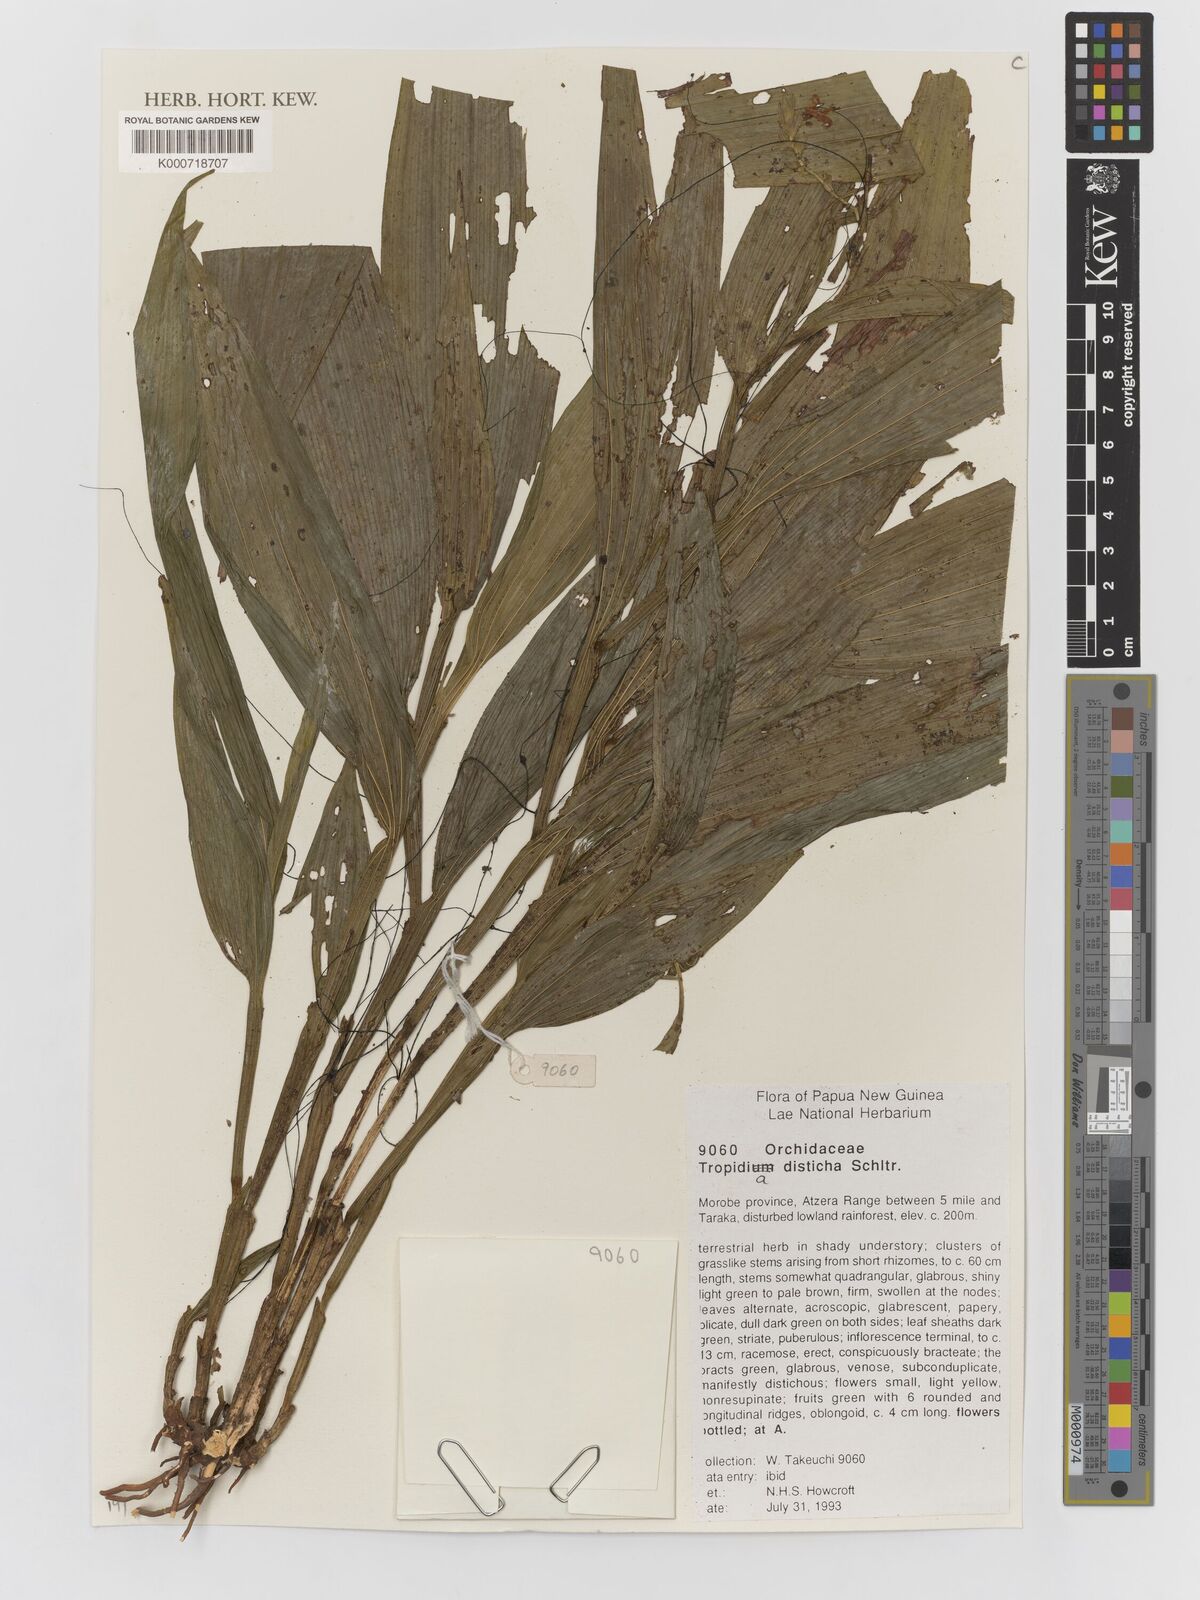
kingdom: Plantae
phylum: Tracheophyta
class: Liliopsida
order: Asparagales
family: Orchidaceae
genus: Tropidia
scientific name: Tropidia disticha
